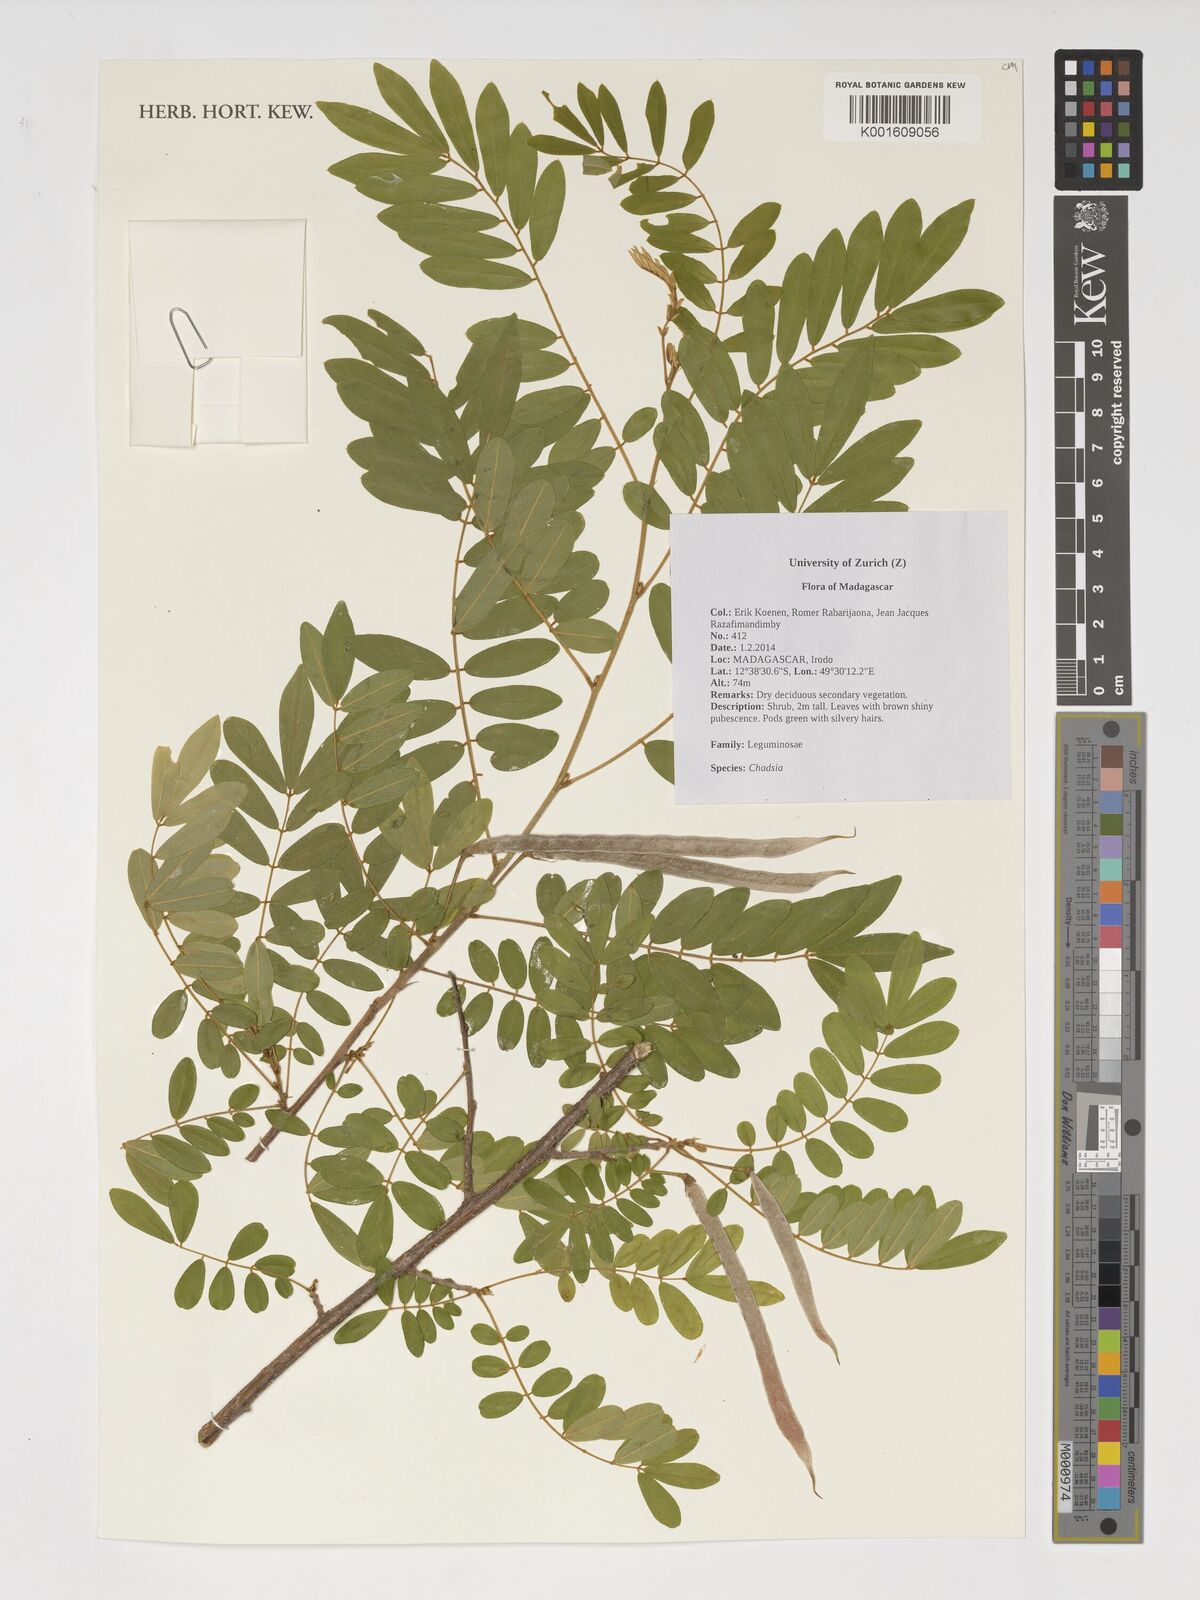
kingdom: Plantae
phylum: Tracheophyta
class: Magnoliopsida
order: Fabales
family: Fabaceae
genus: Chadsia
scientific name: Chadsia
